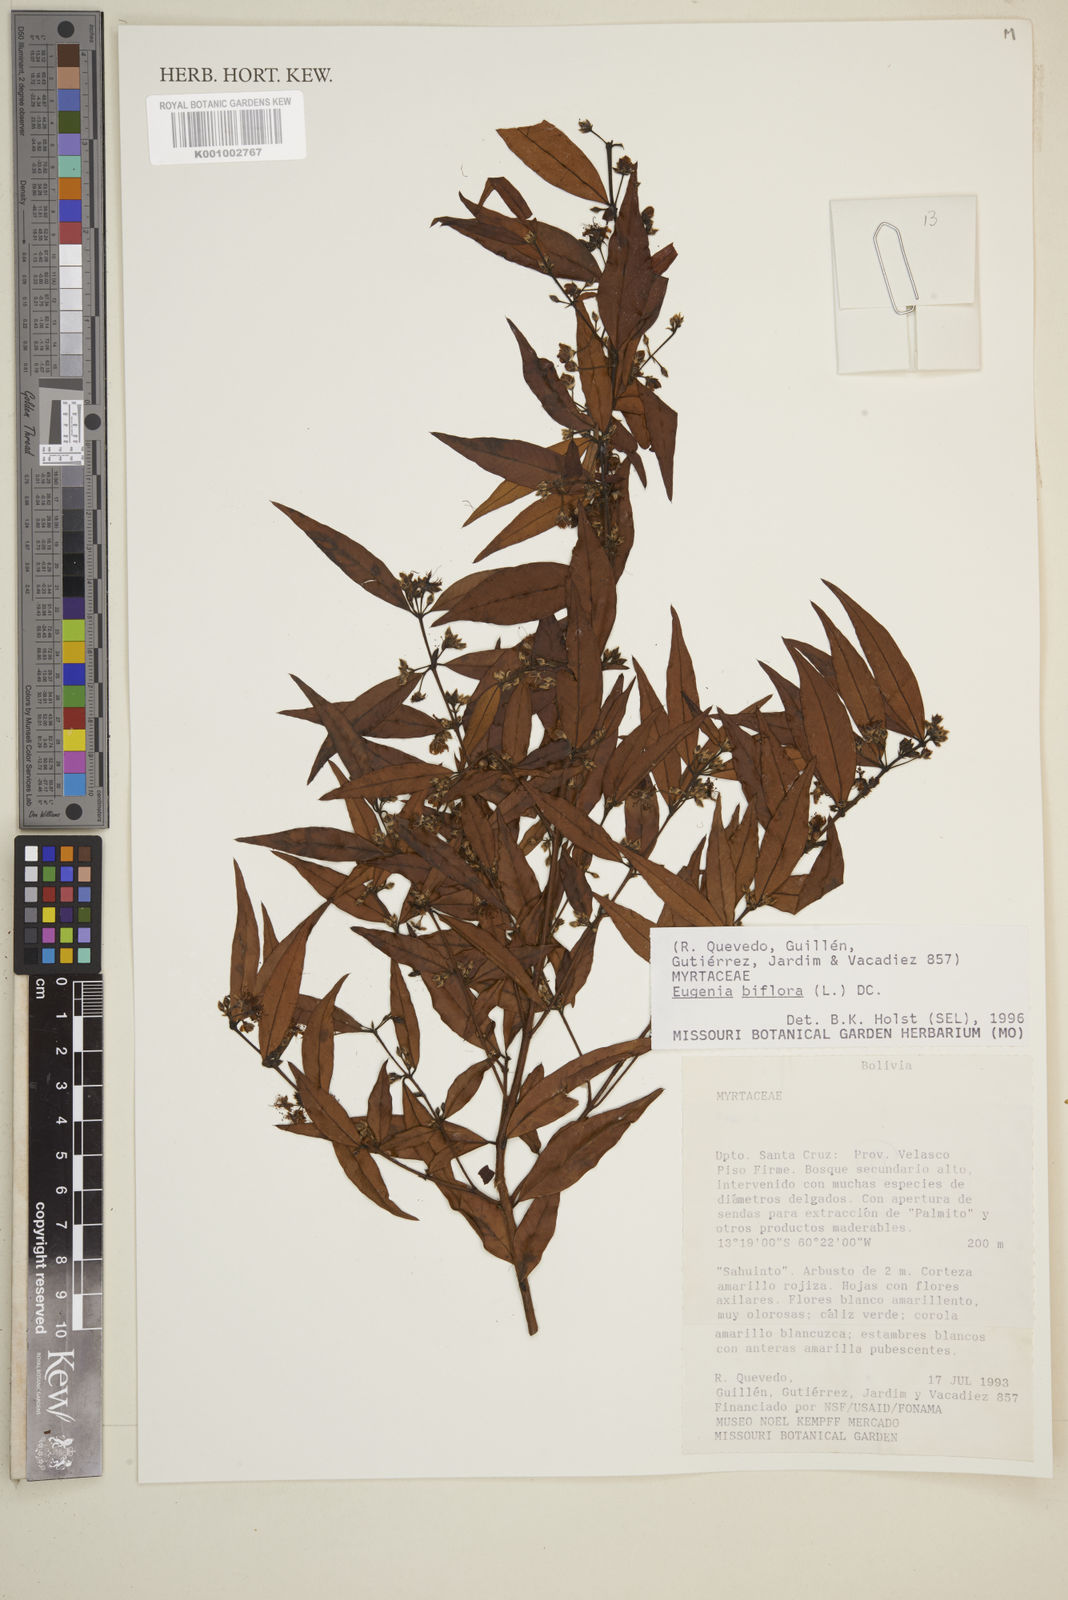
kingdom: Plantae
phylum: Tracheophyta
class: Magnoliopsida
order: Myrtales
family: Myrtaceae
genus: Eugenia
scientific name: Eugenia biflora
